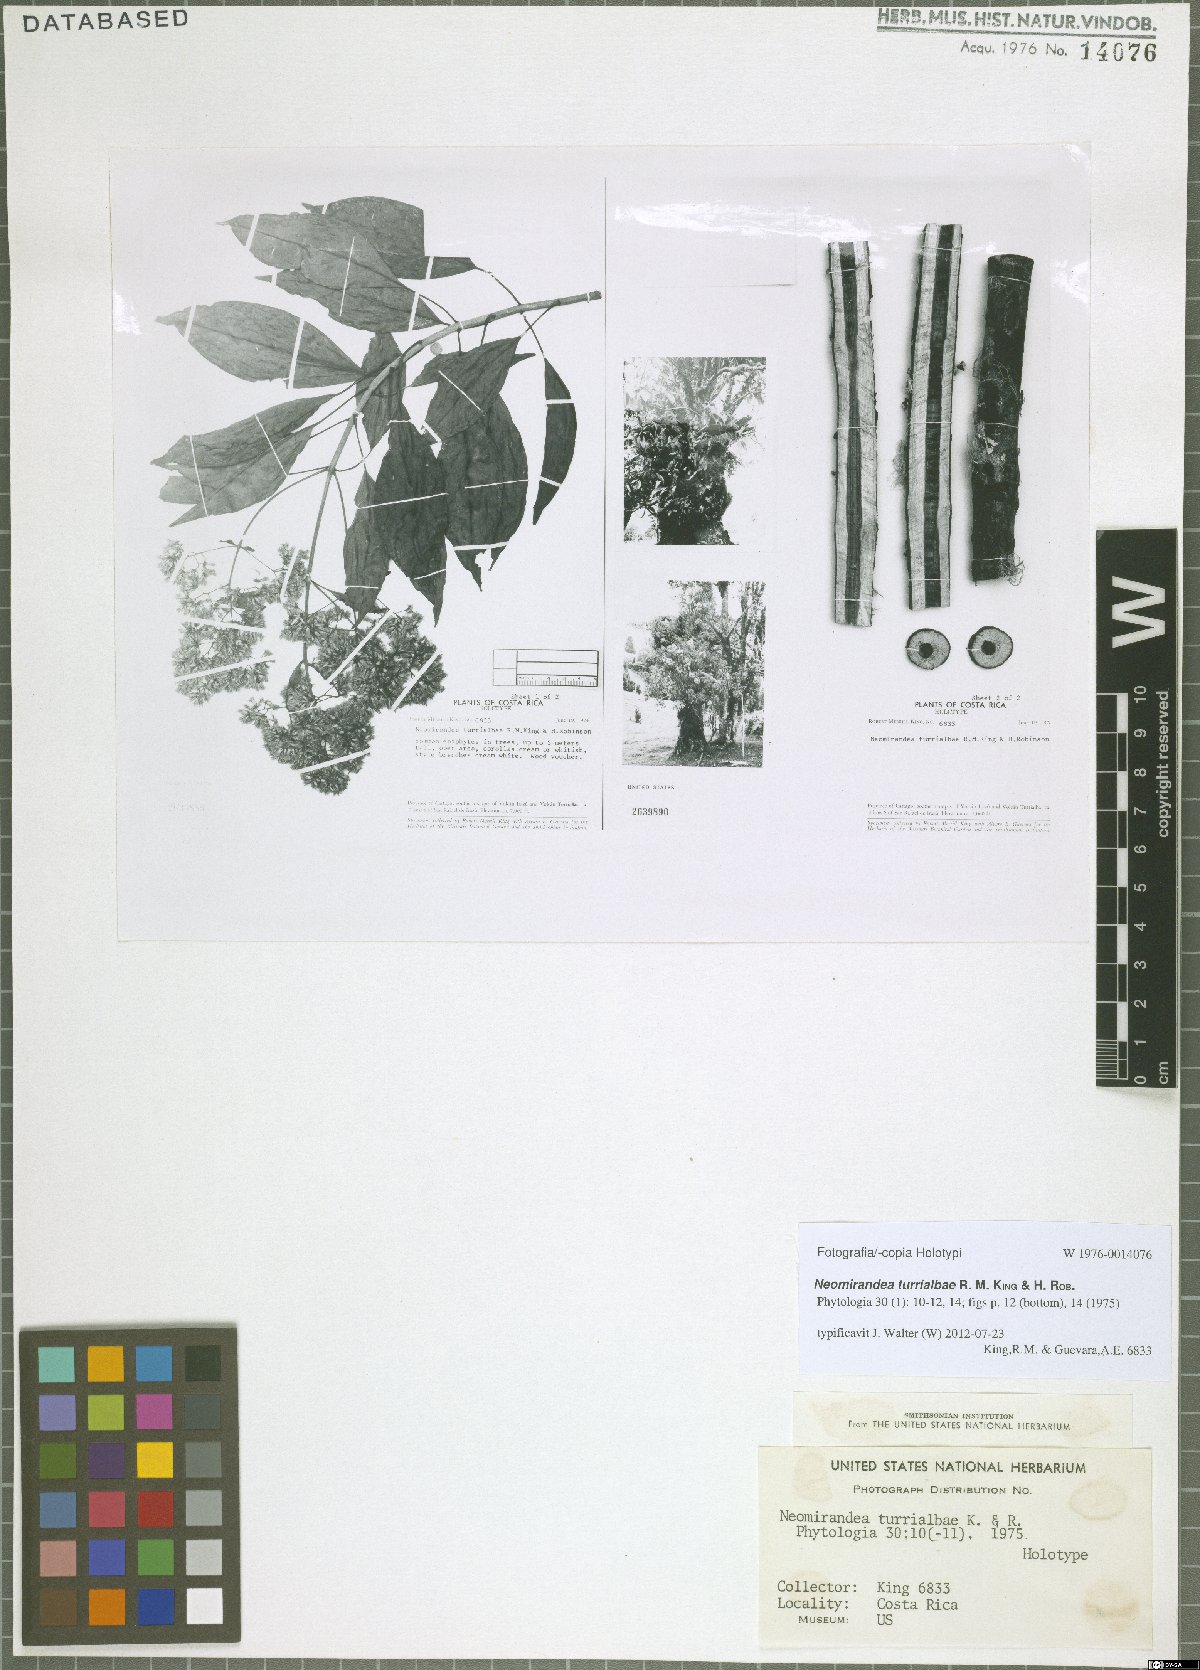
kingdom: Plantae
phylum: Tracheophyta
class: Magnoliopsida
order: Asterales
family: Asteraceae
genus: Neomirandea
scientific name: Neomirandea biflora
